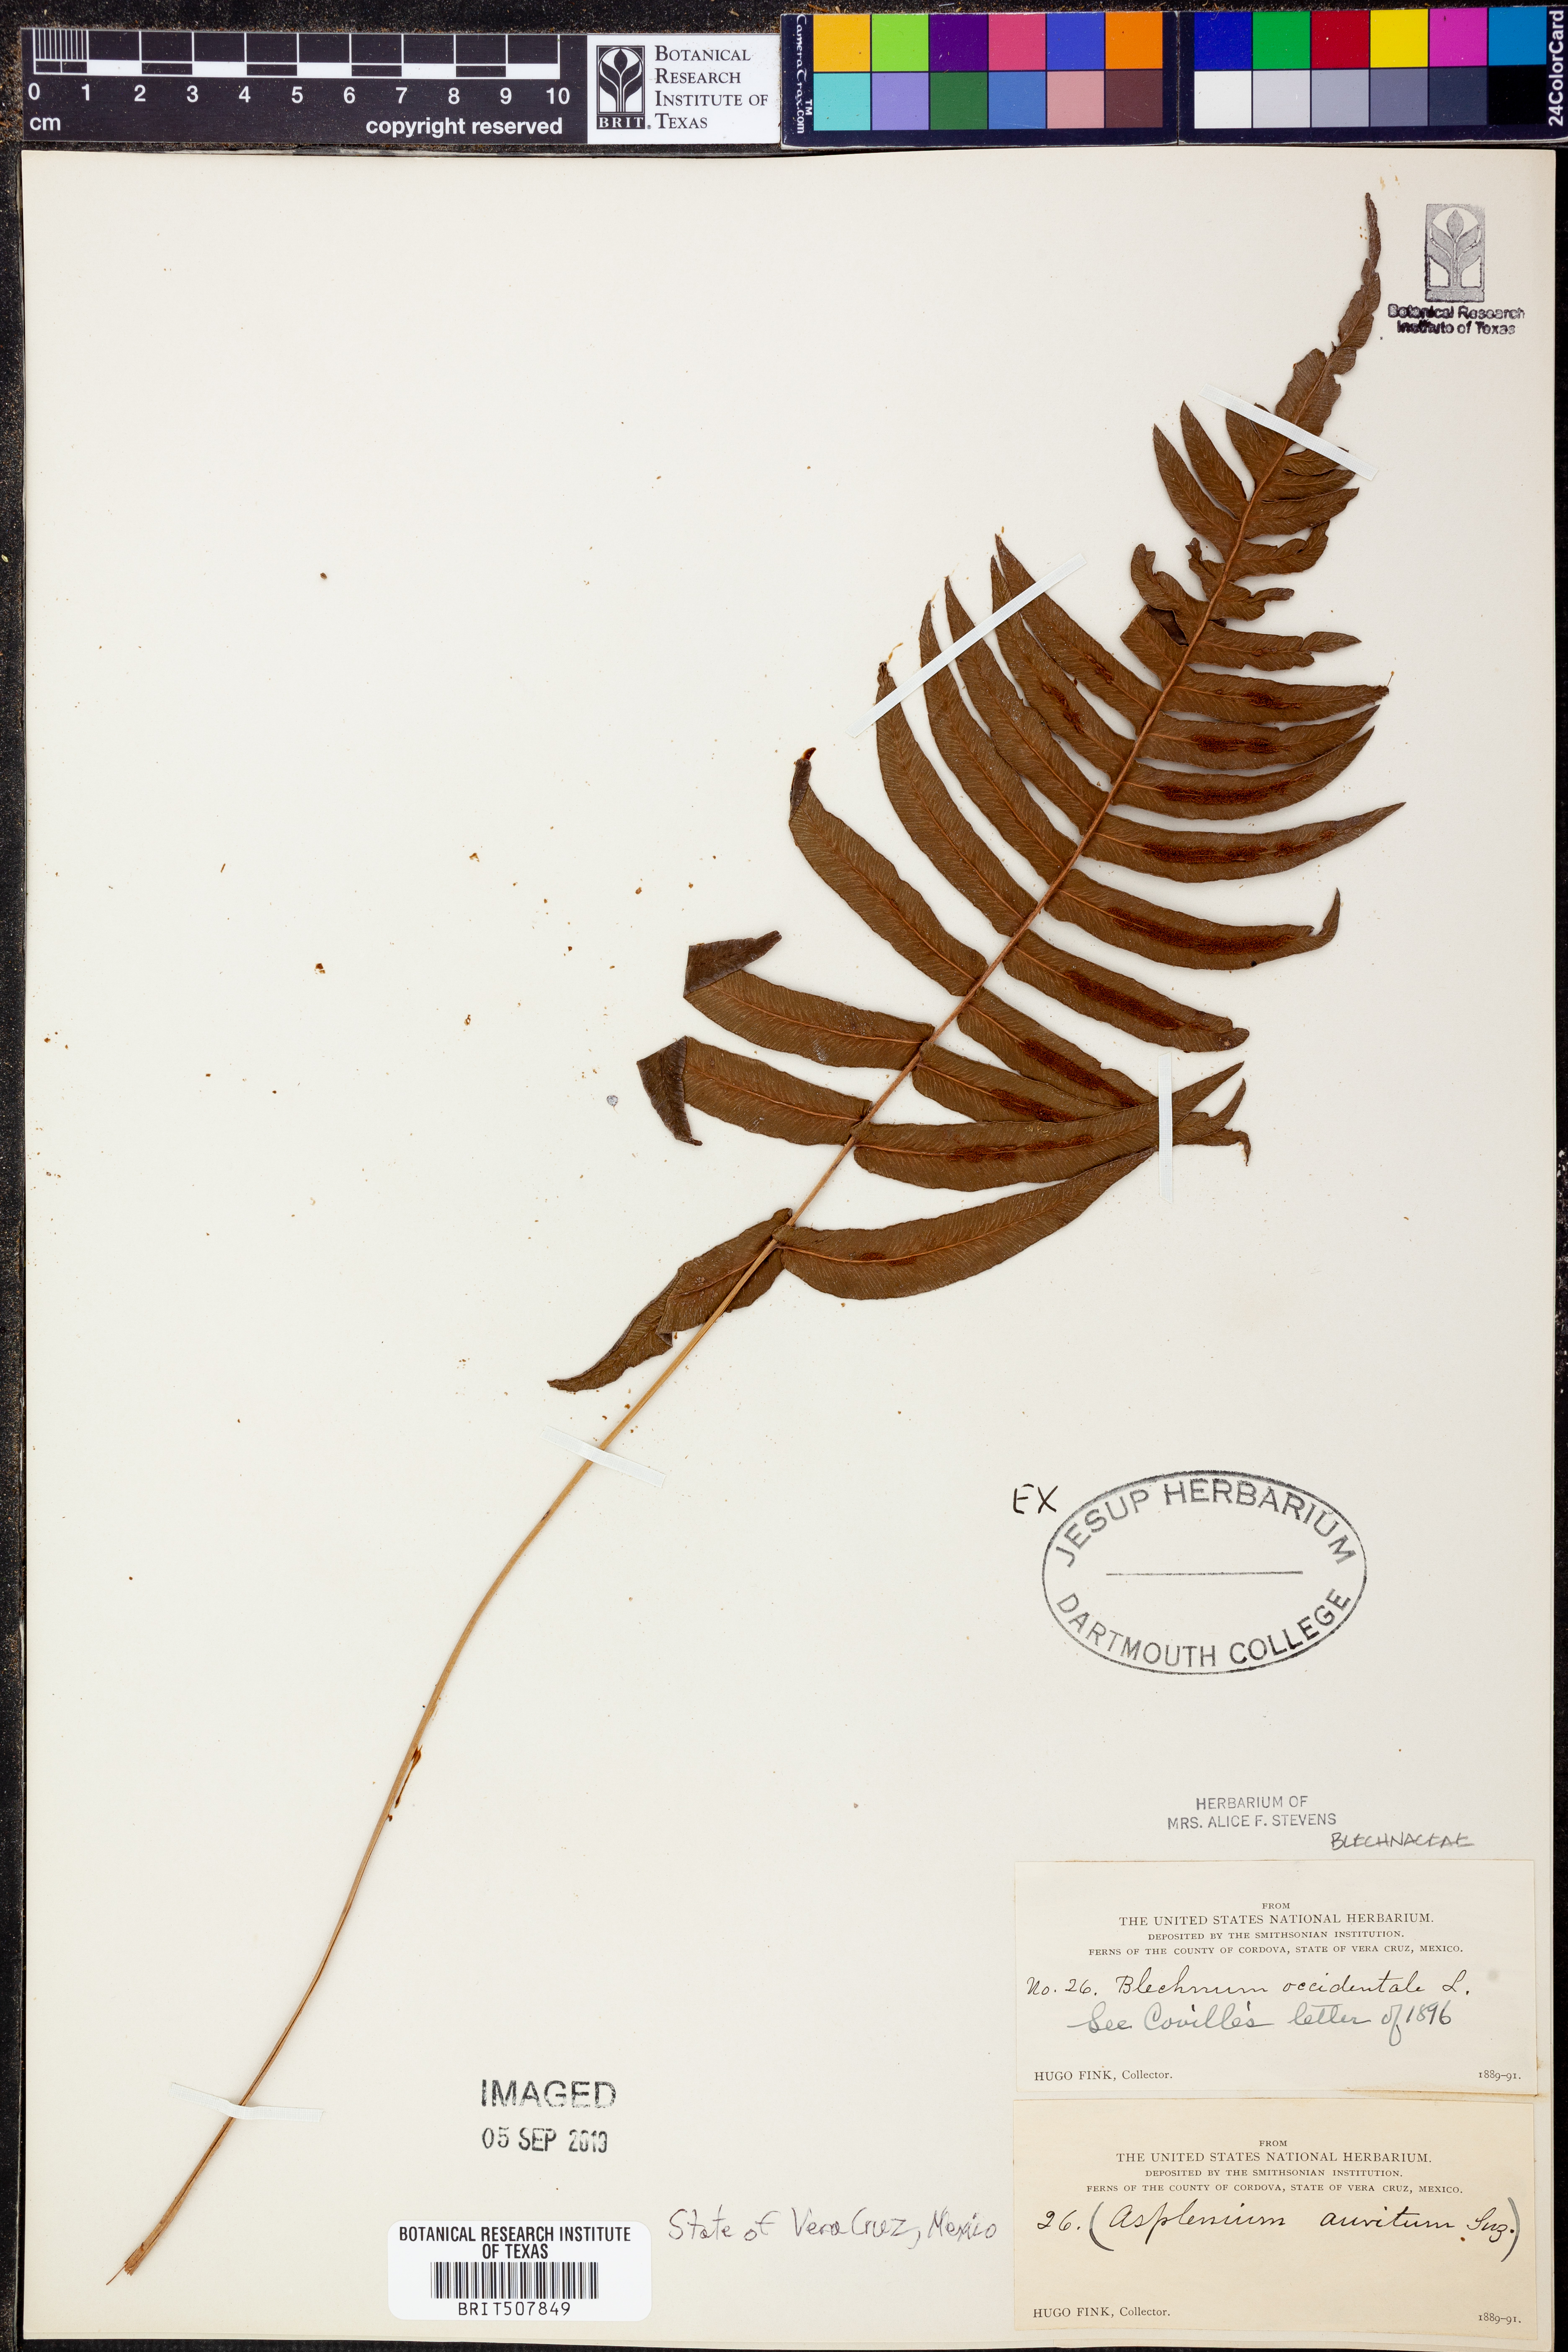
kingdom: Plantae
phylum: Tracheophyta
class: Polypodiopsida
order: Polypodiales
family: Blechnaceae
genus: Blechnum
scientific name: Blechnum occidentale
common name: Hammock fern
